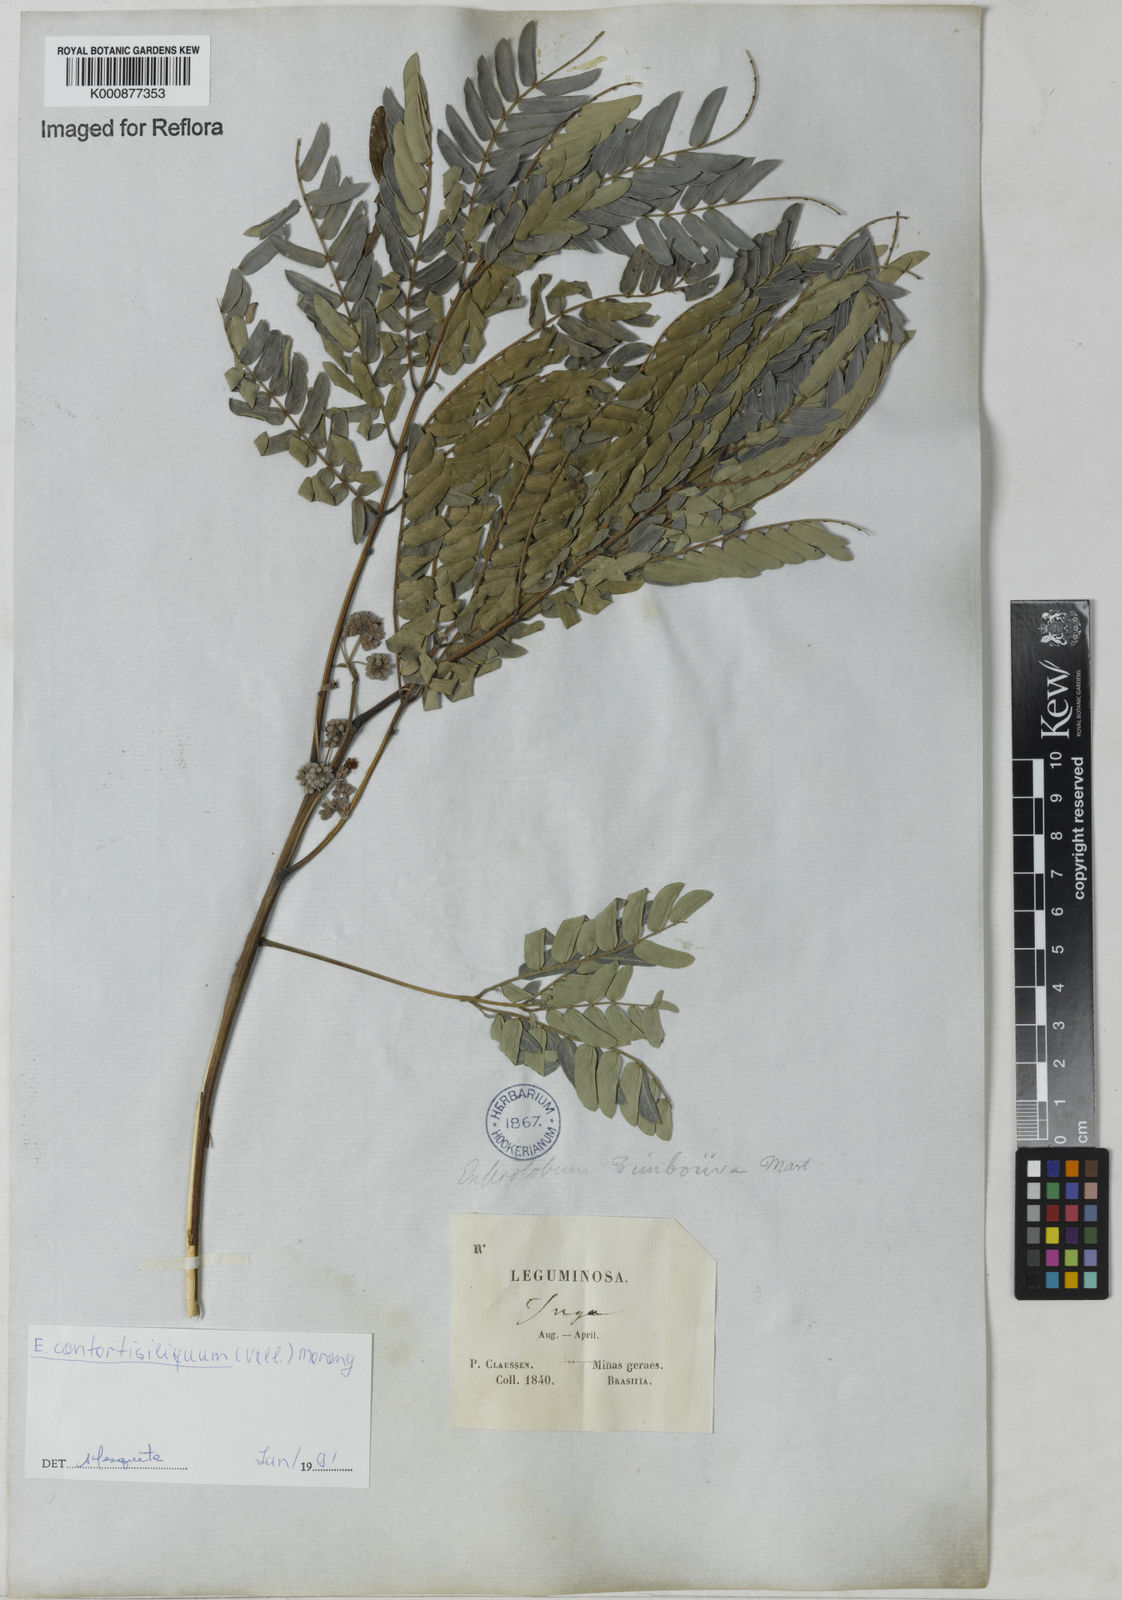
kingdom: Plantae
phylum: Tracheophyta
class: Magnoliopsida
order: Fabales
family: Fabaceae
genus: Enterolobium
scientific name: Enterolobium timbouva
